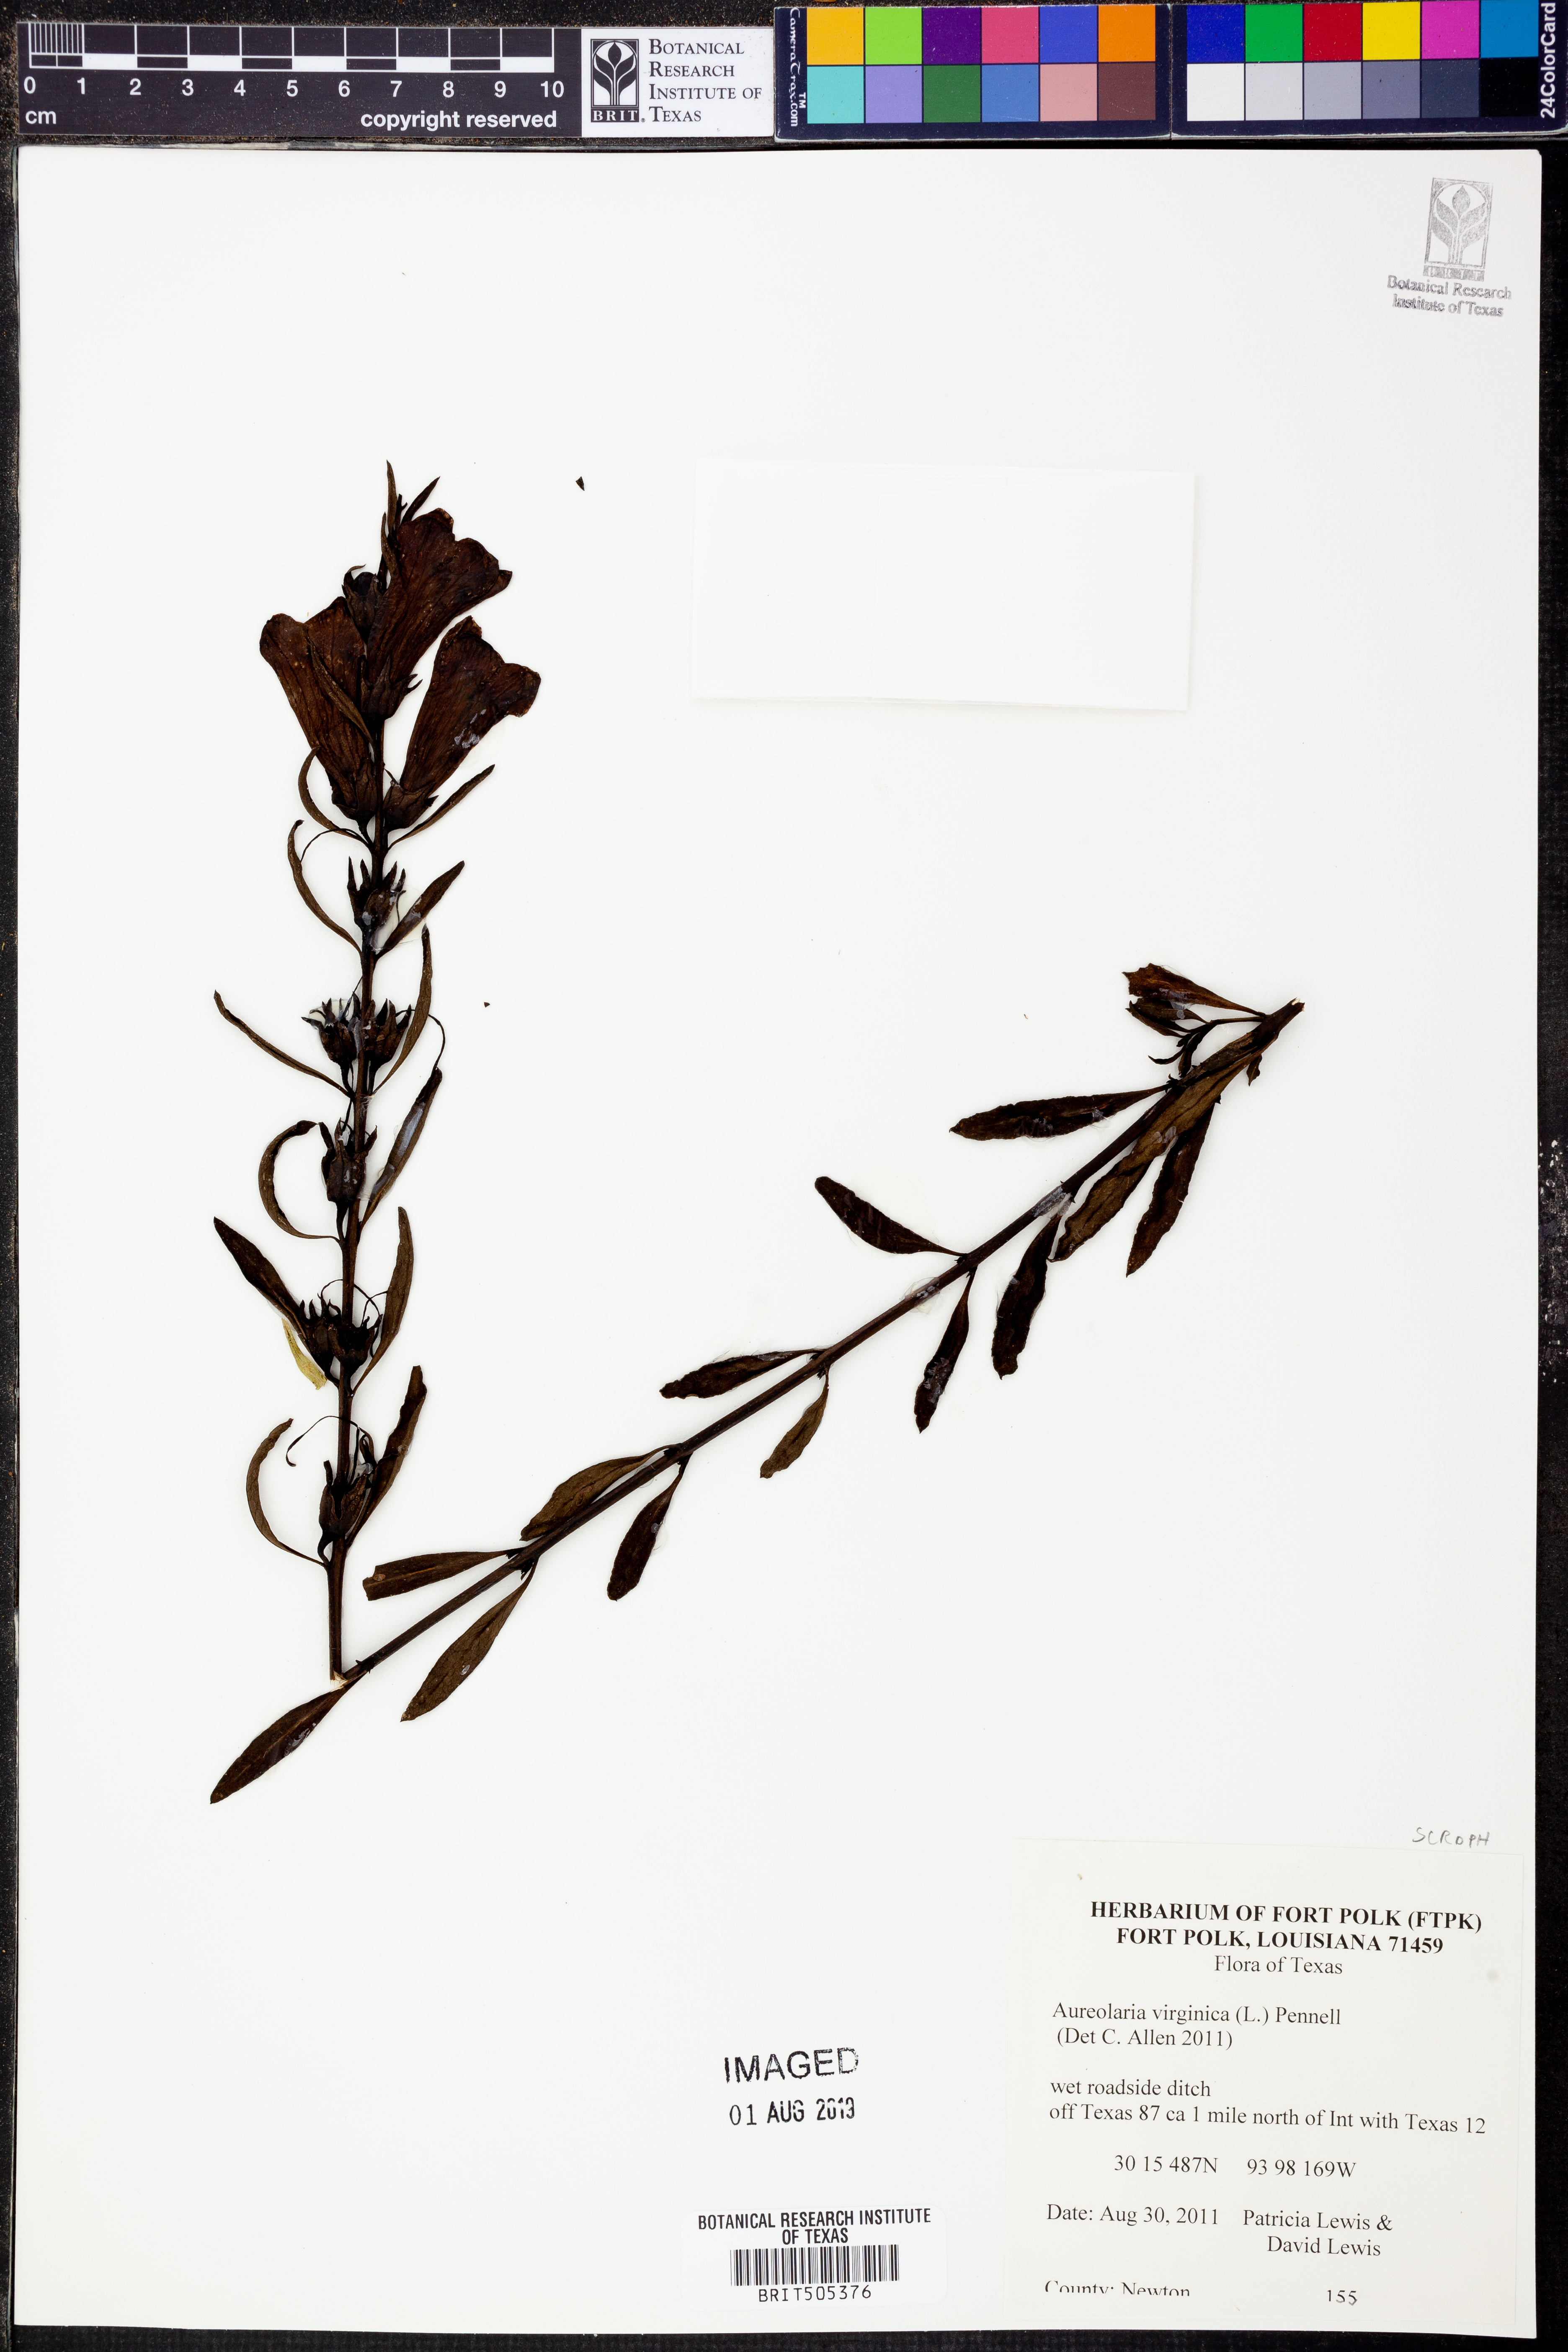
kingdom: Plantae
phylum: Tracheophyta
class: Magnoliopsida
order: Lamiales
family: Orobanchaceae
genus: Aureolaria
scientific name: Aureolaria virginica
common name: Downy false foxglove
